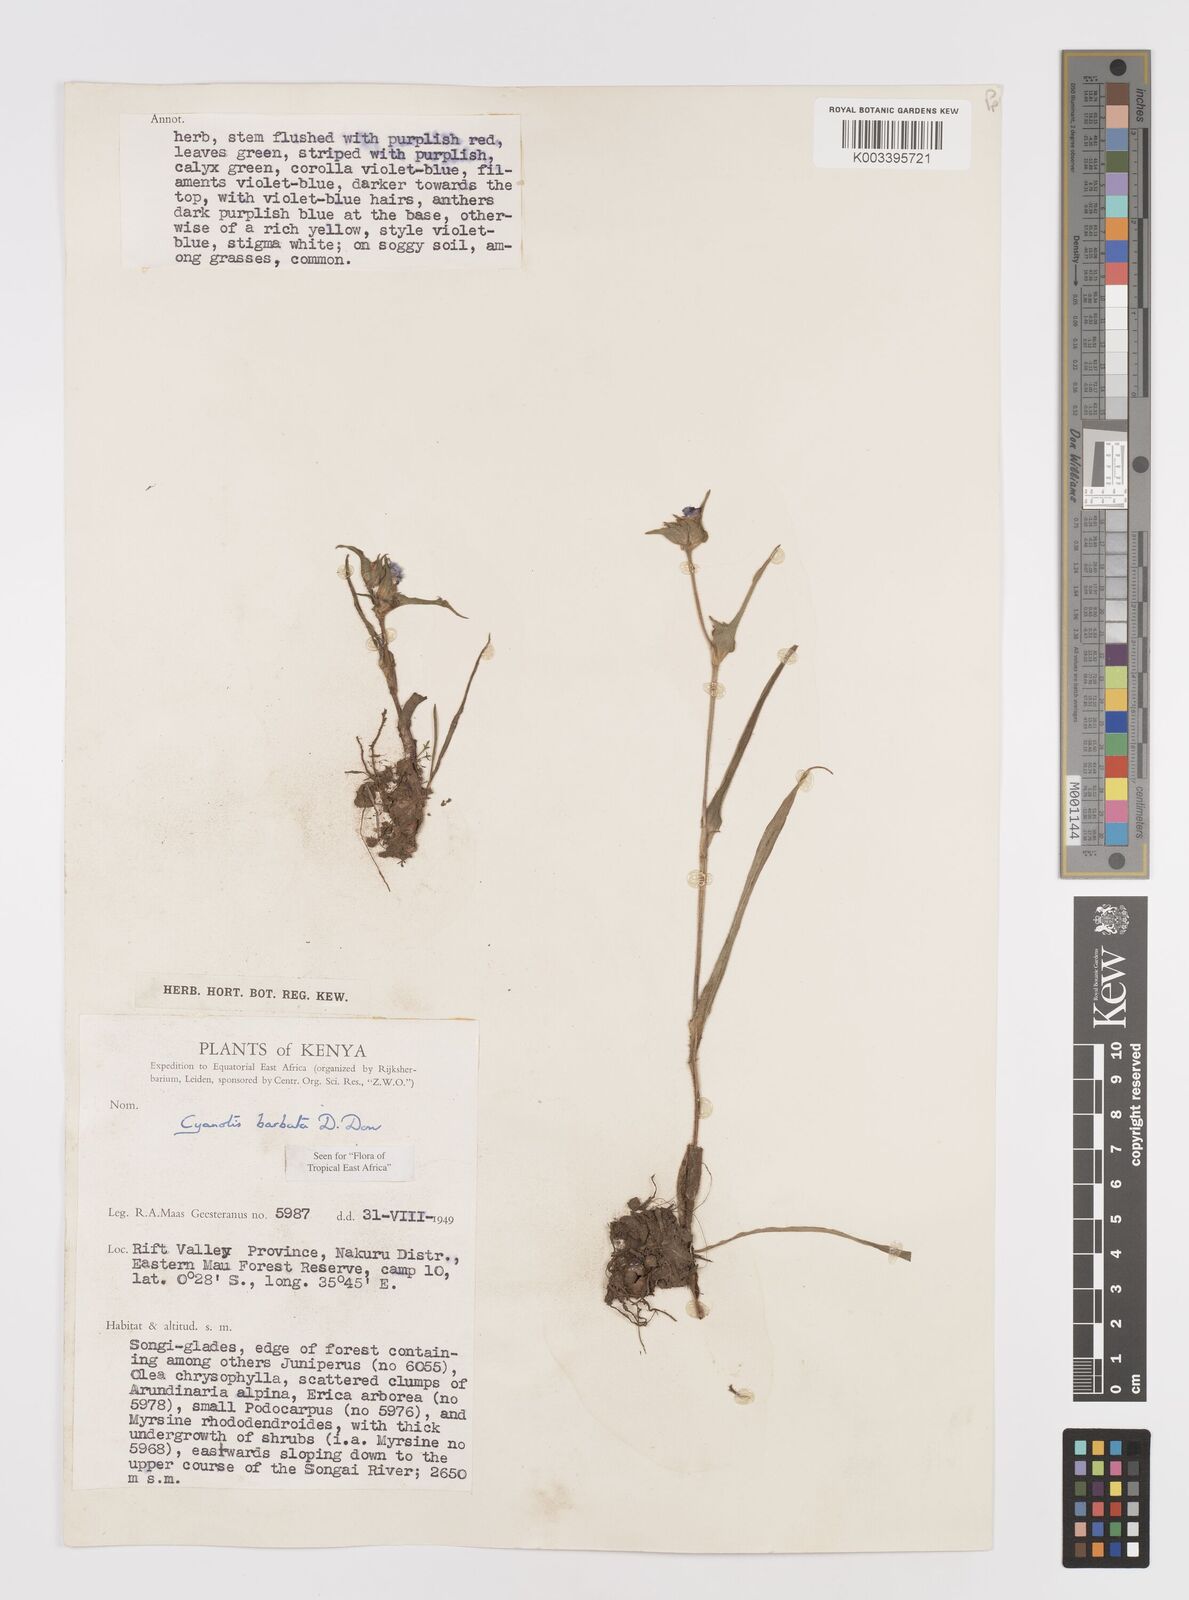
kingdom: Plantae
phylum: Tracheophyta
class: Liliopsida
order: Commelinales
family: Commelinaceae
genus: Cyanotis
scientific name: Cyanotis vaga
